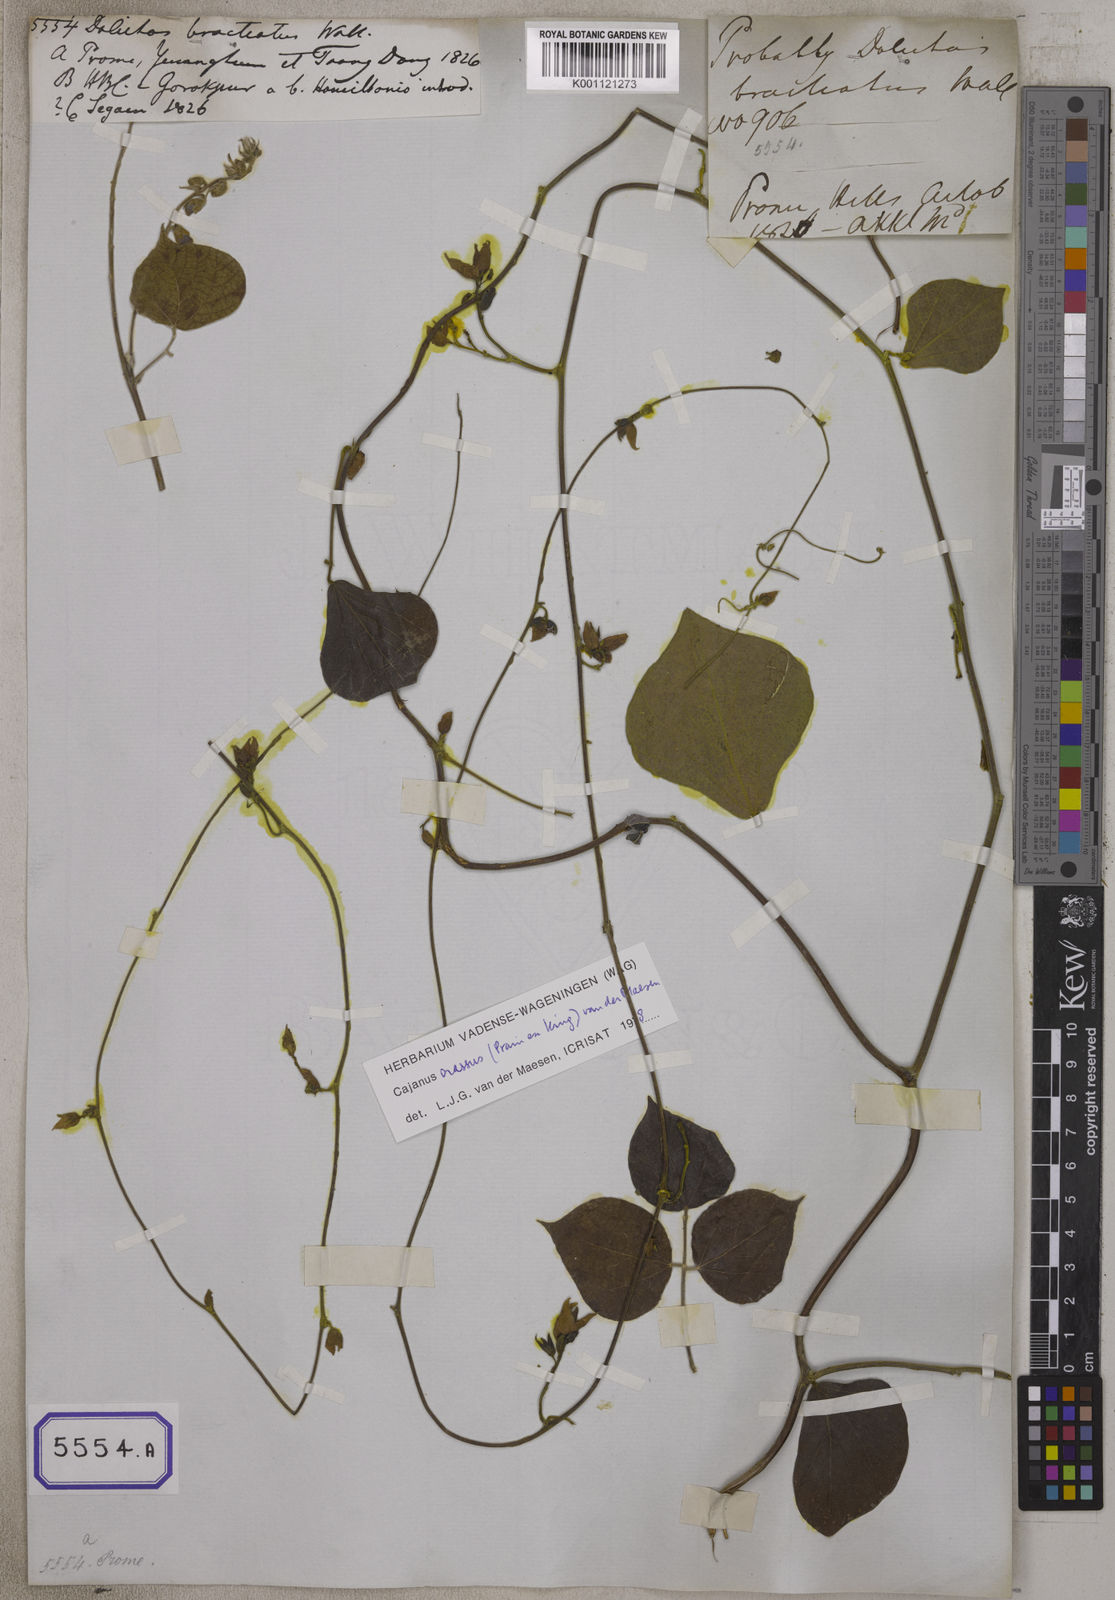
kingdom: Plantae
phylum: Tracheophyta
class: Magnoliopsida
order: Fabales
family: Fabaceae
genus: Rhynchosia
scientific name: Rhynchosia bracteata
